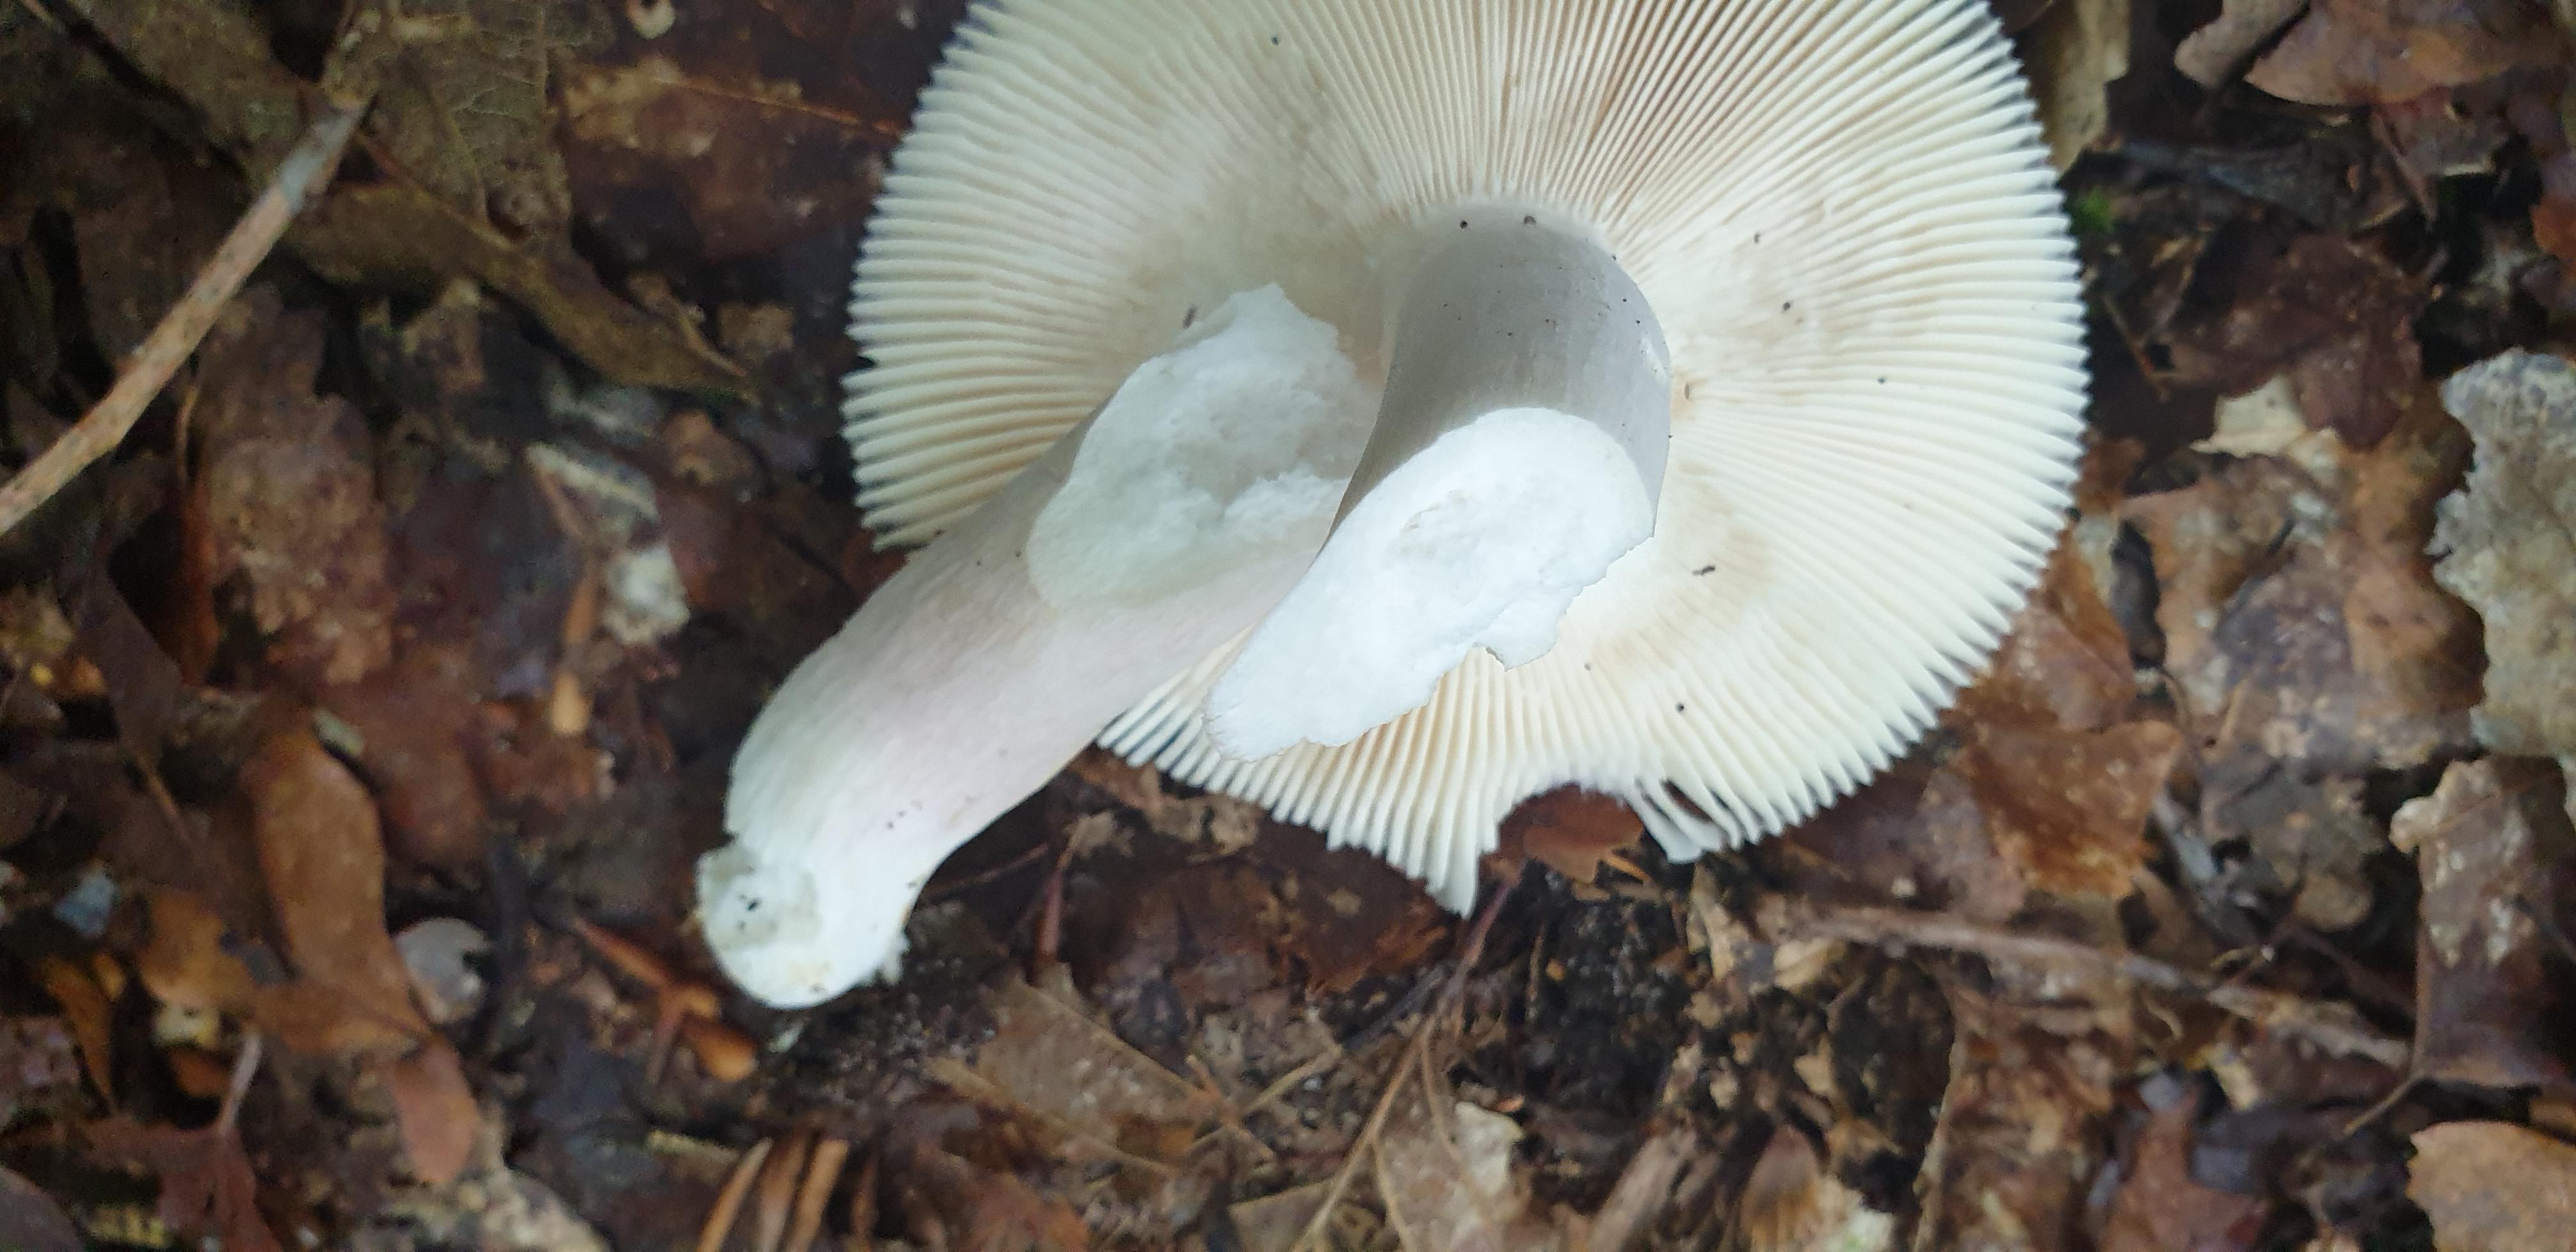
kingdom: Fungi
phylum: Basidiomycota
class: Agaricomycetes
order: Russulales
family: Russulaceae
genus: Russula
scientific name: Russula
